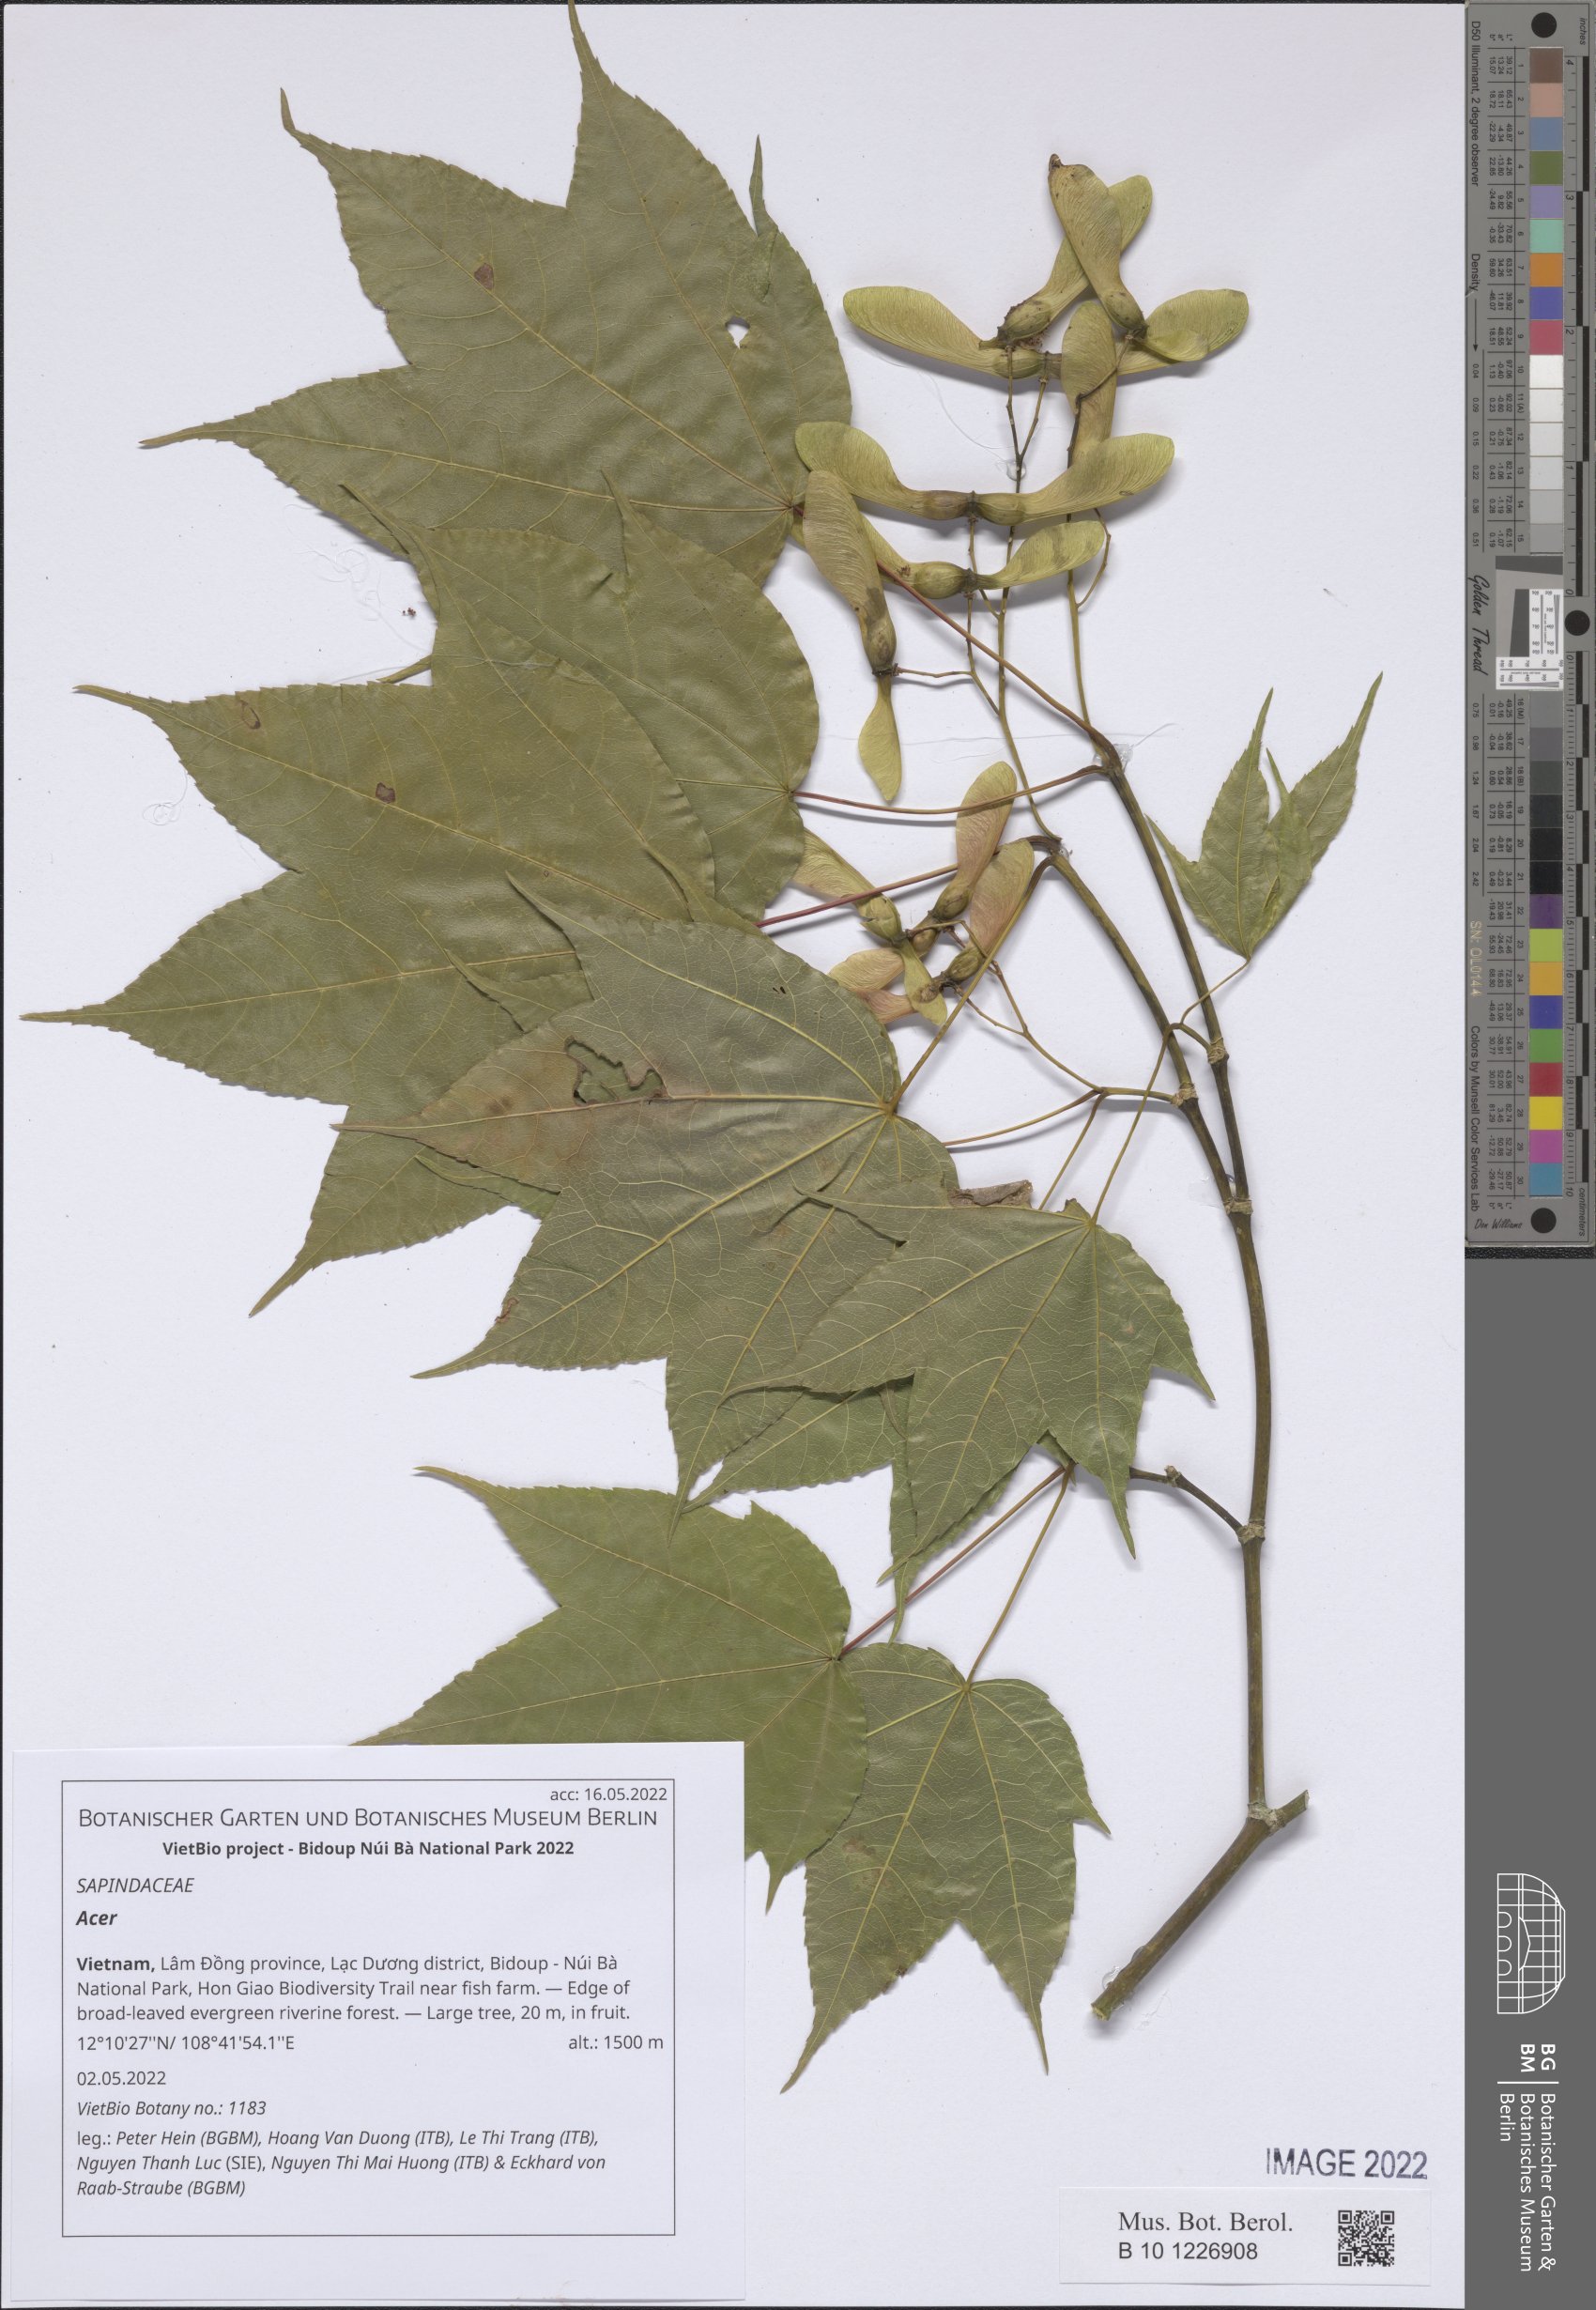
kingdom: Plantae
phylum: Tracheophyta
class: Magnoliopsida
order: Sapindales
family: Sapindaceae
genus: Acer
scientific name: Acer
